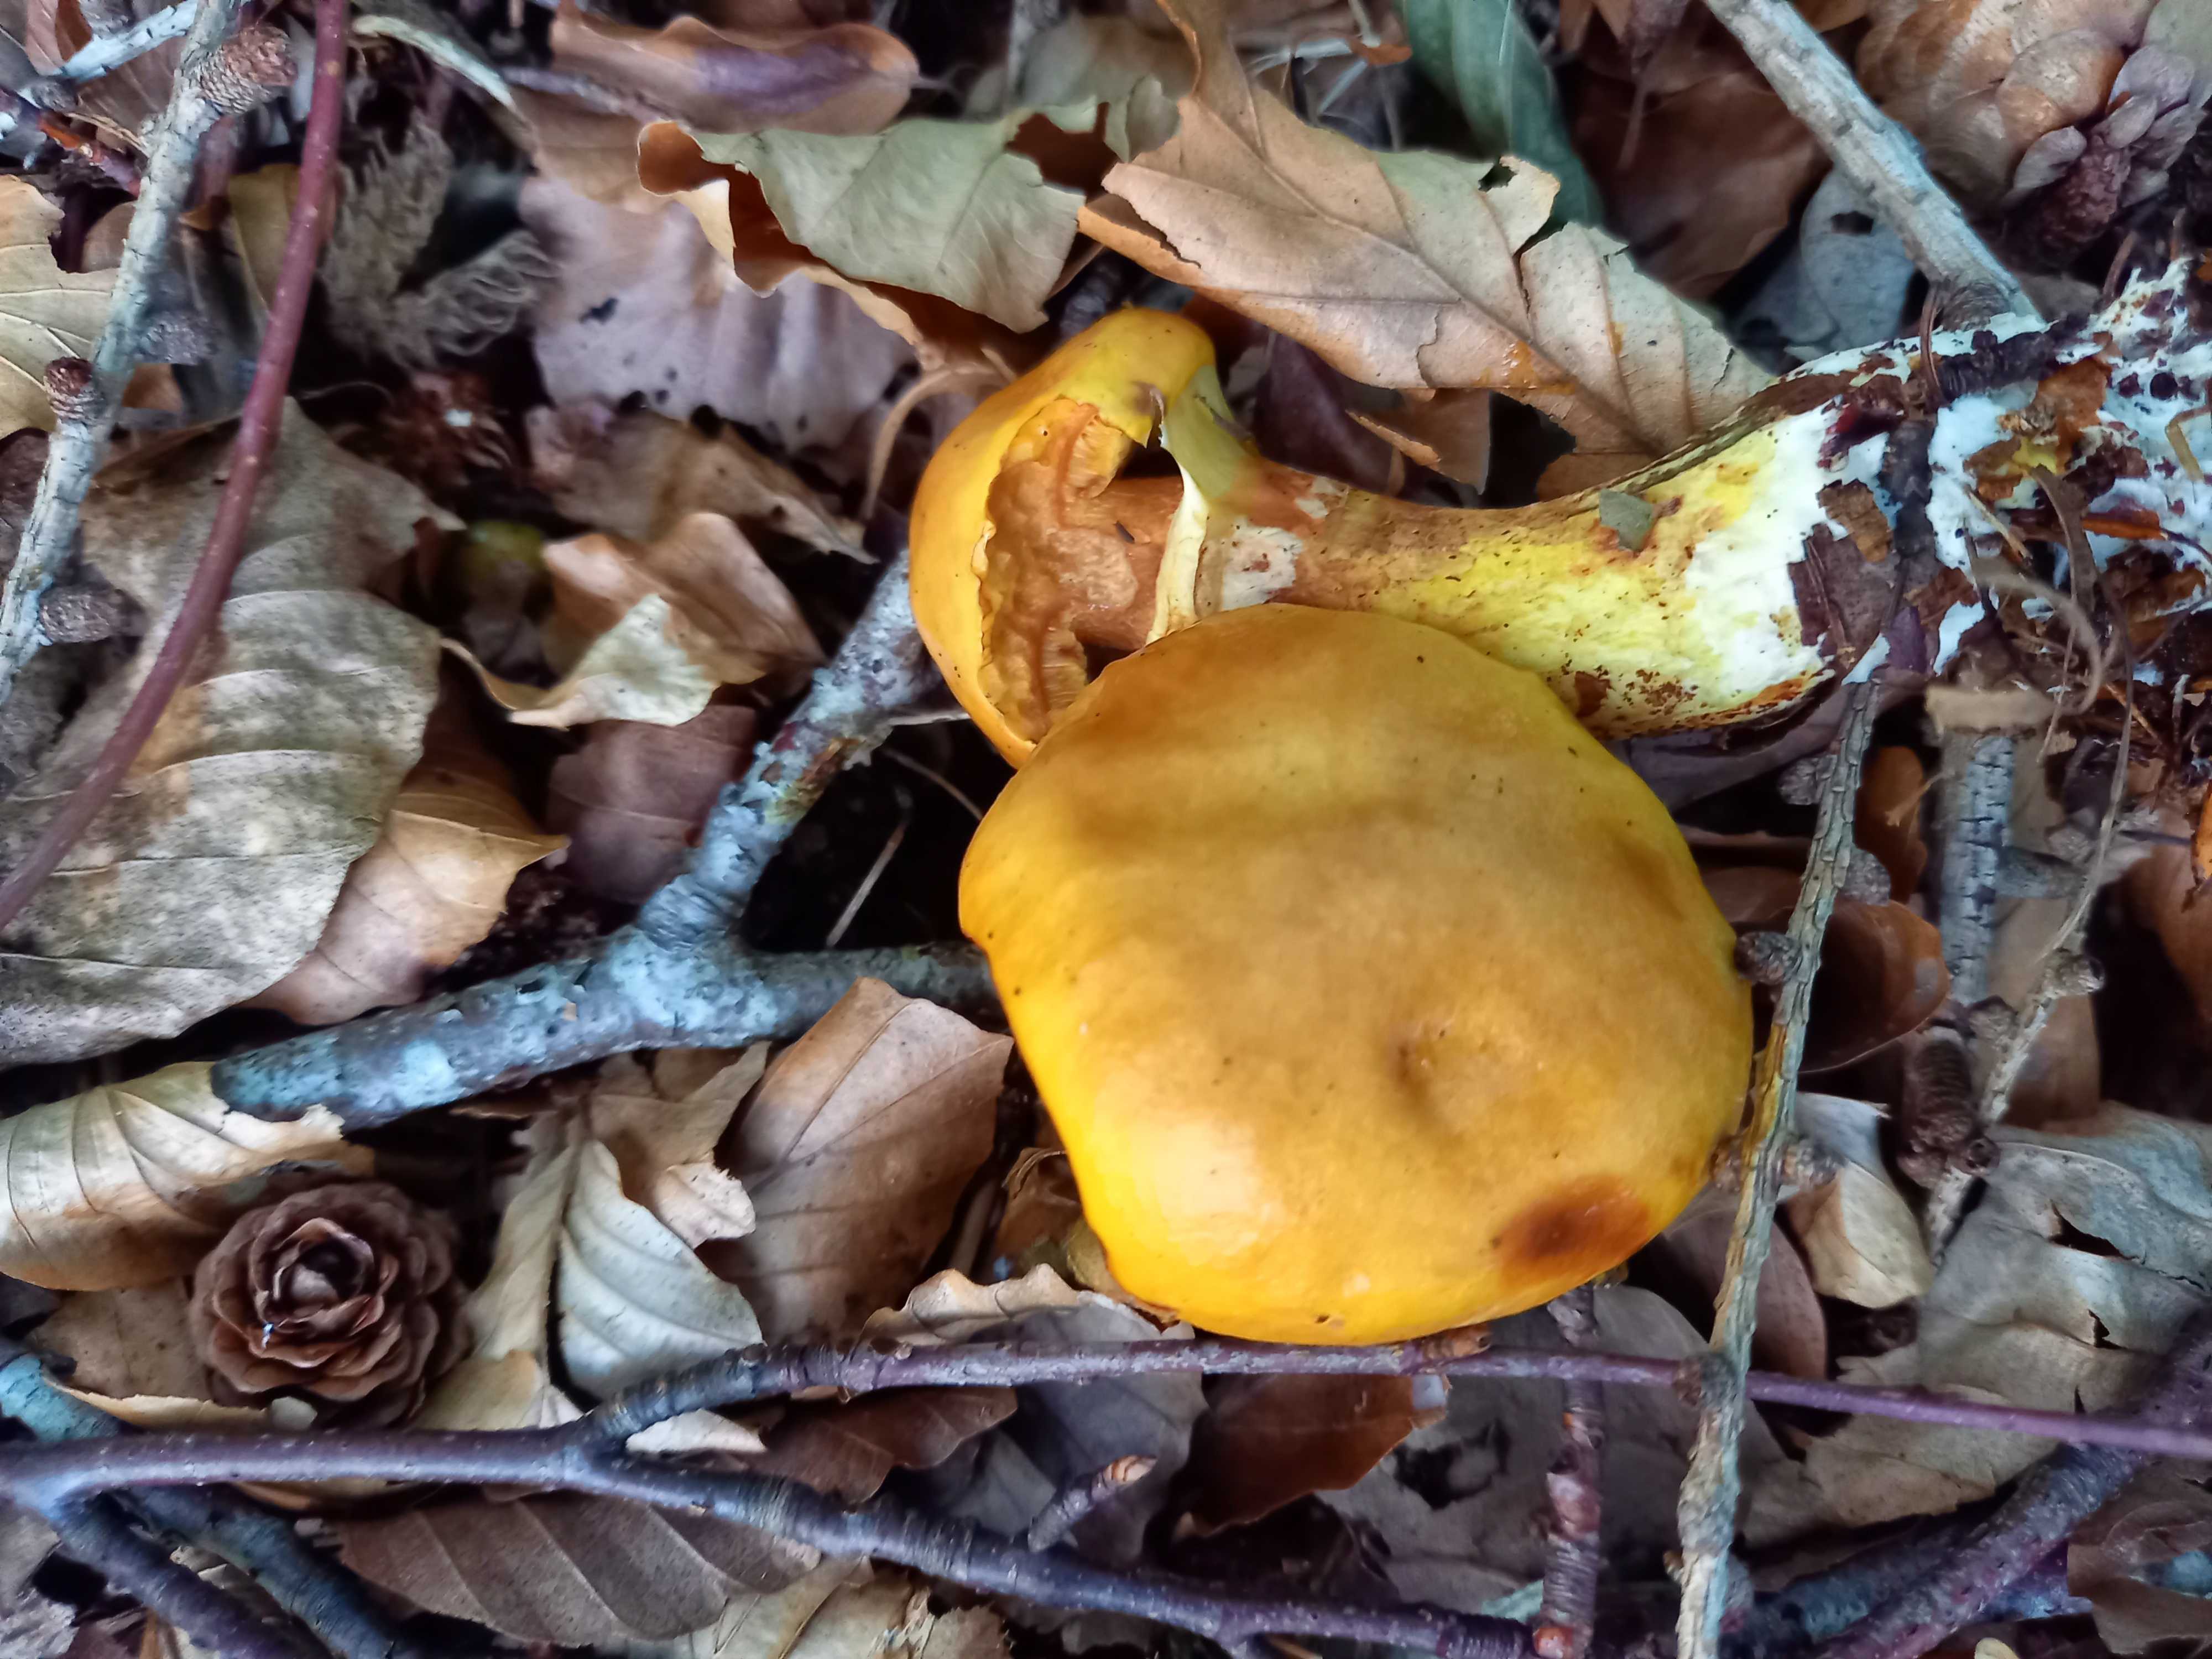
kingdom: Fungi
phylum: Basidiomycota
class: Agaricomycetes
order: Boletales
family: Suillaceae
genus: Suillus
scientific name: Suillus grevillei
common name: lærke-slimrørhat
